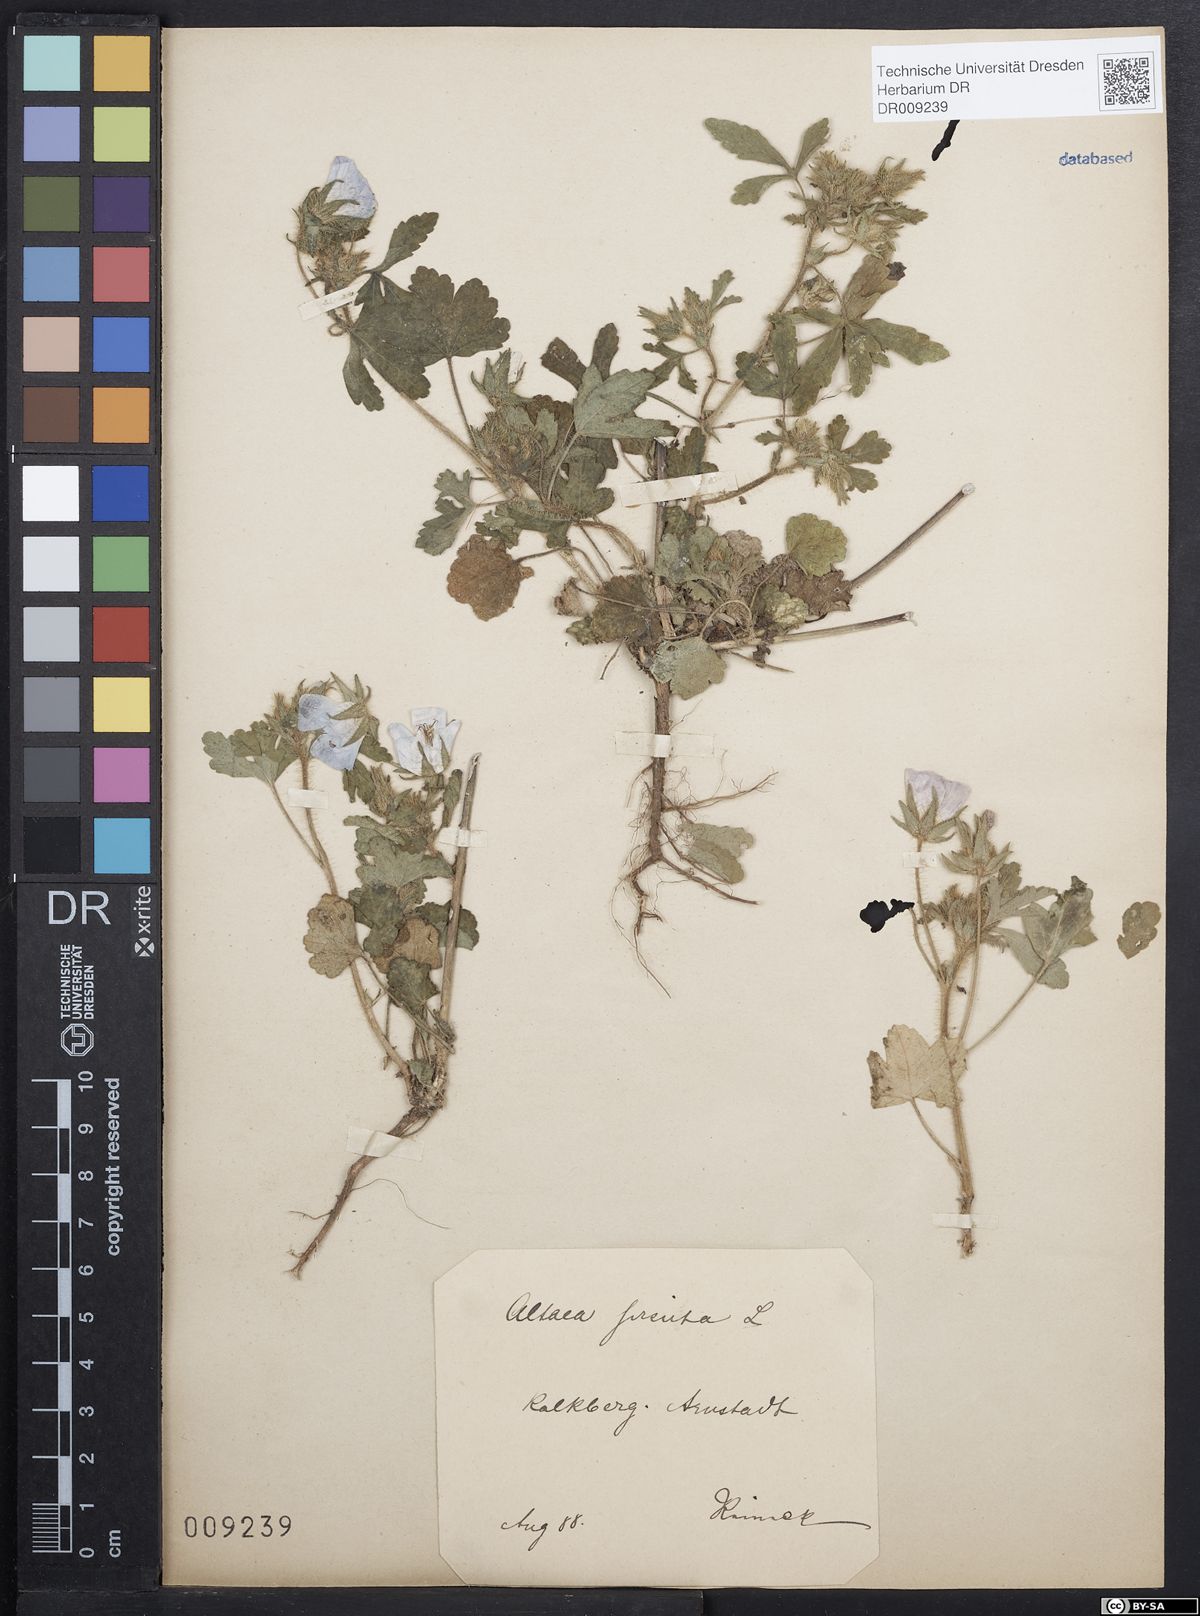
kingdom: Plantae
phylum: Tracheophyta
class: Magnoliopsida
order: Malvales
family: Malvaceae
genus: Althaea
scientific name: Althaea hirsuta
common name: Rough marsh-mallow
